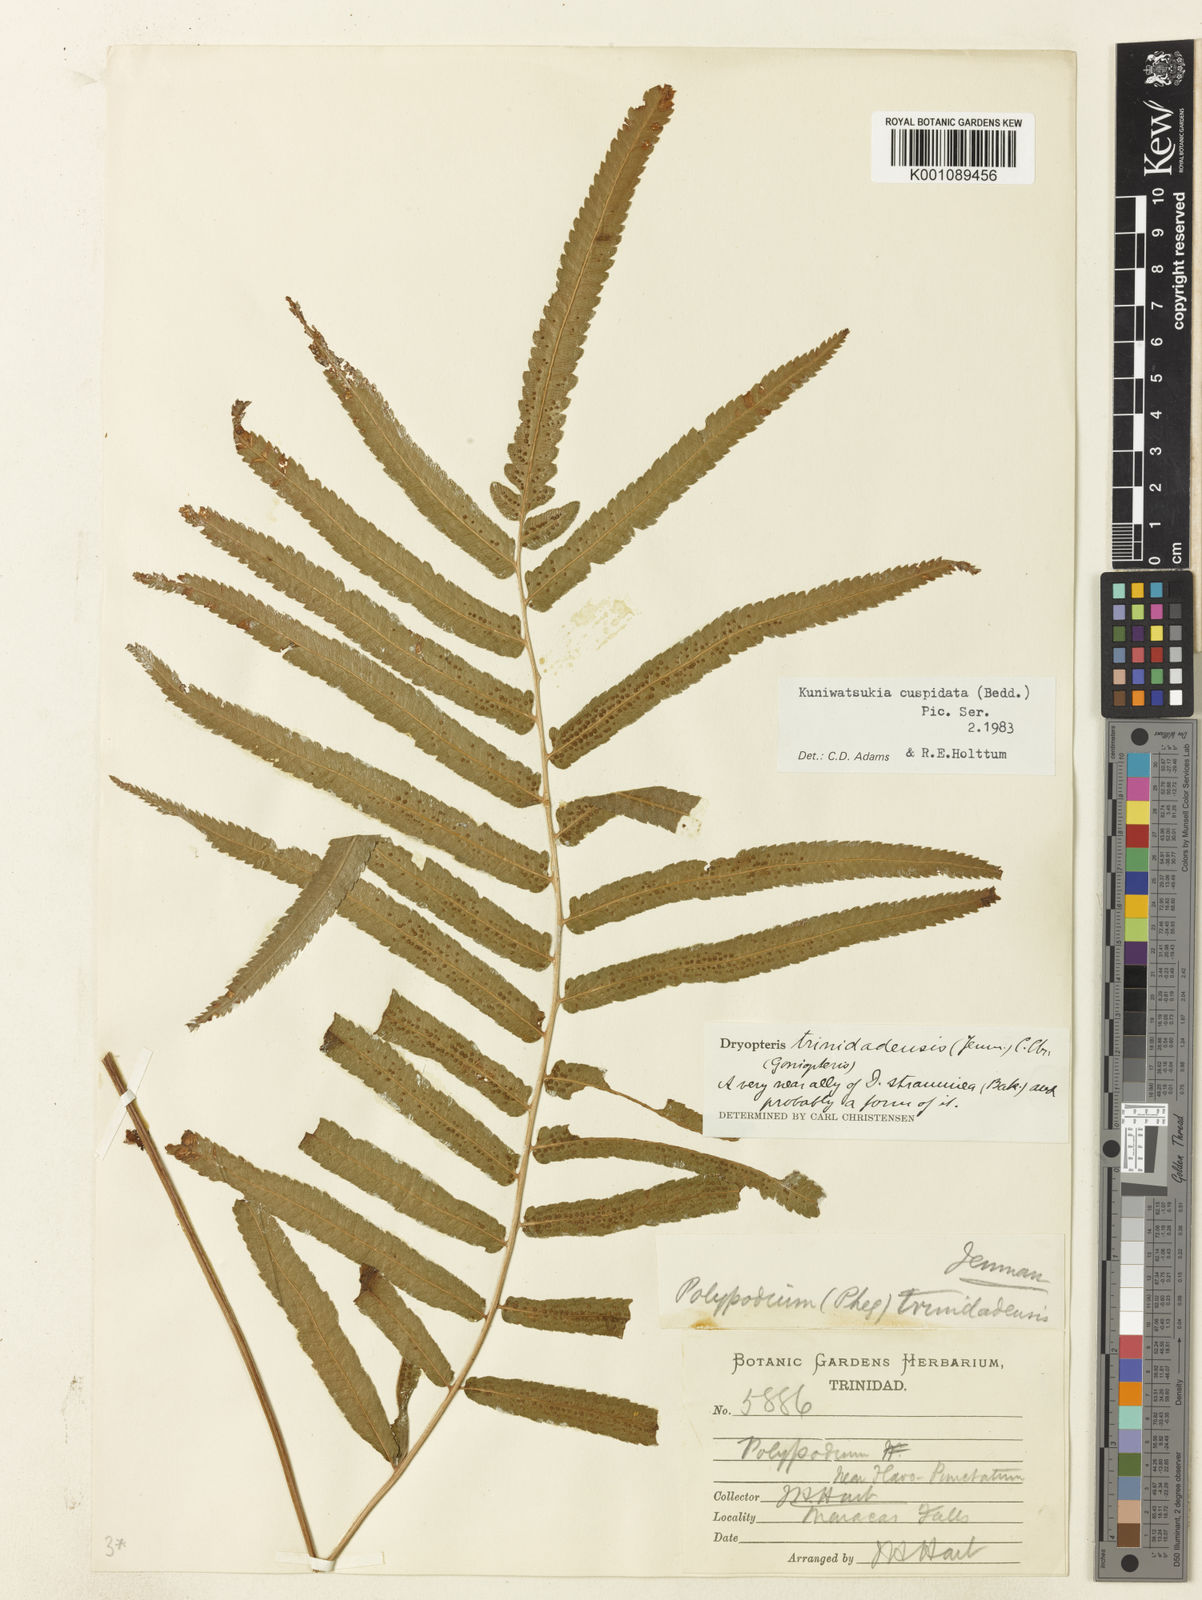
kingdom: Plantae
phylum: Tracheophyta
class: Polypodiopsida
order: Polypodiales
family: Athyriaceae
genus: Anisocampium
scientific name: Anisocampium cuspidatum
